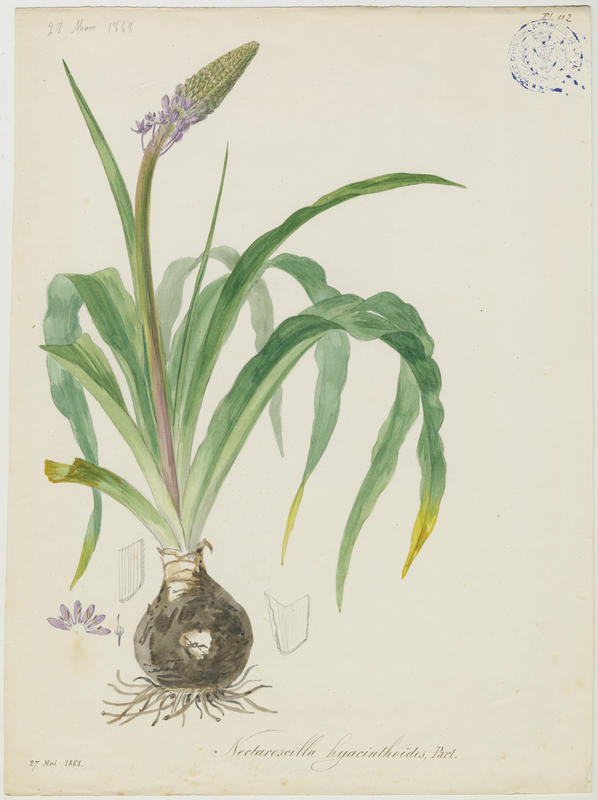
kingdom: Plantae
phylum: Tracheophyta
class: Liliopsida
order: Asparagales
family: Asparagaceae
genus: Scilla
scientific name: Scilla hyacinthoides
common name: Scilla
